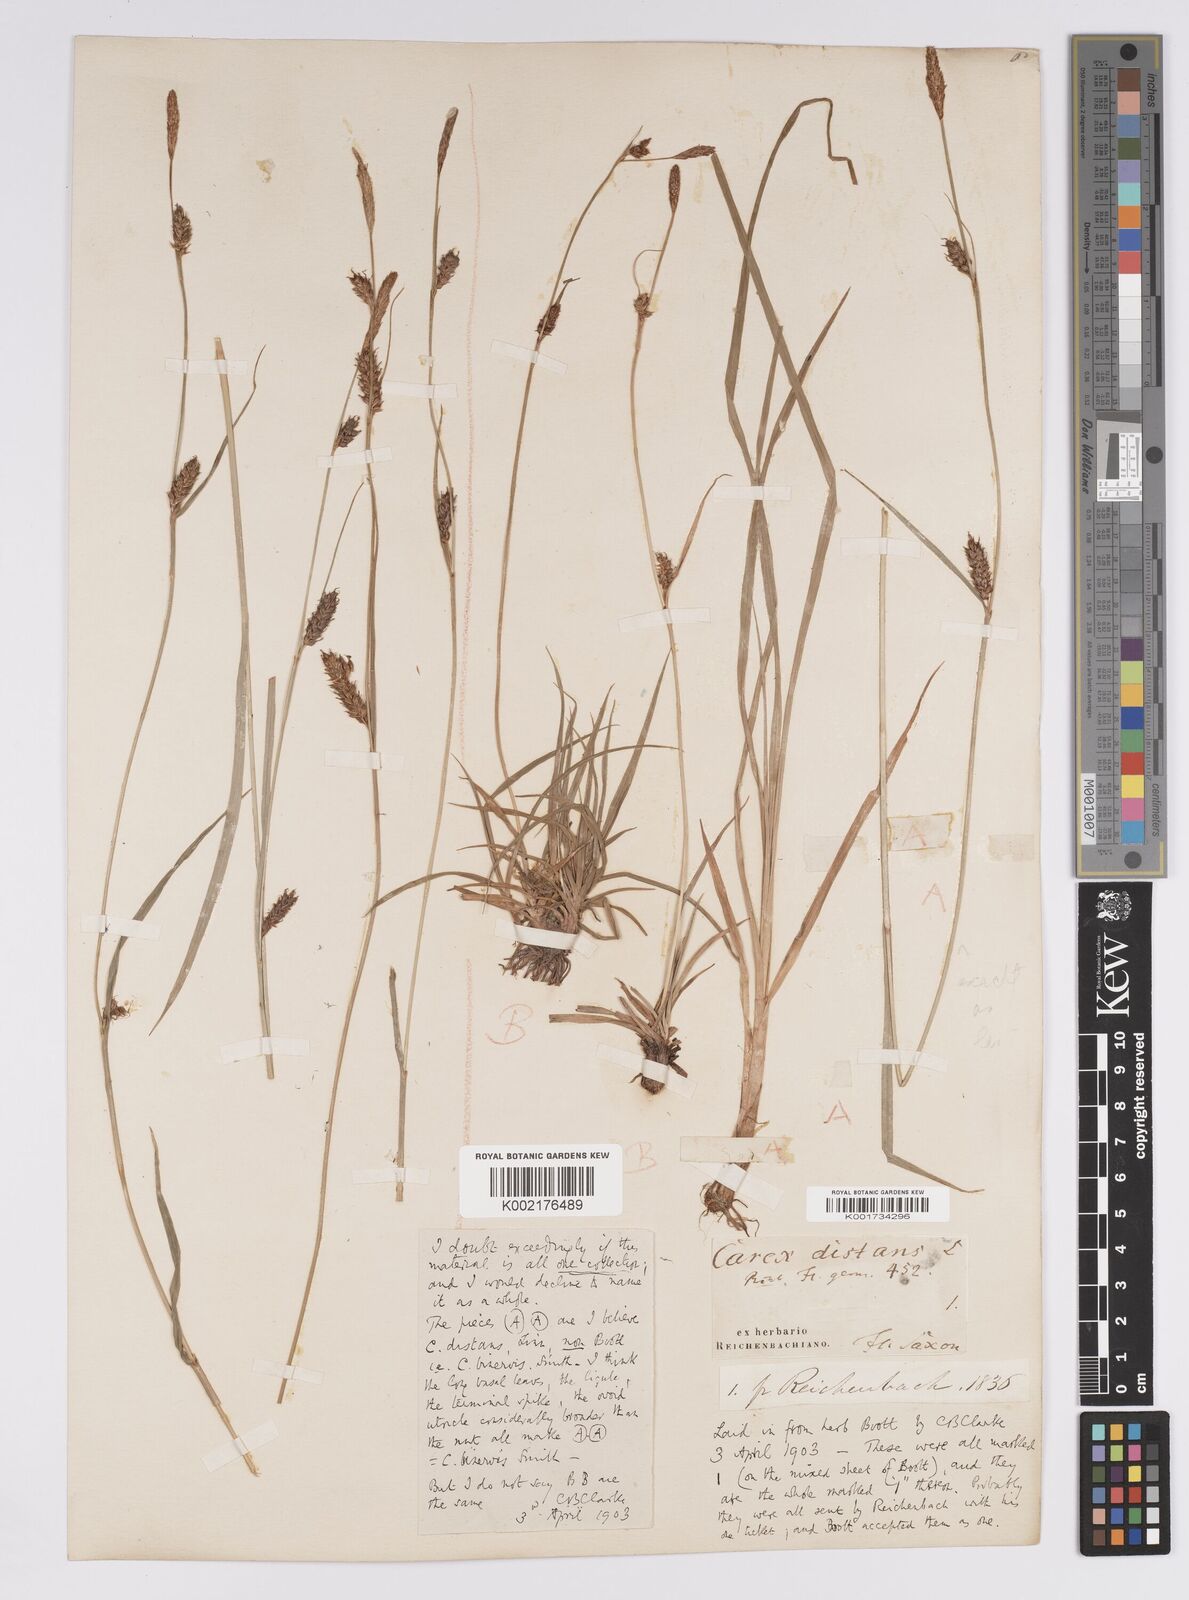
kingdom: Plantae
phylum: Tracheophyta
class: Liliopsida
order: Poales
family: Cyperaceae
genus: Carex
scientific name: Carex distans
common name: Distant sedge
